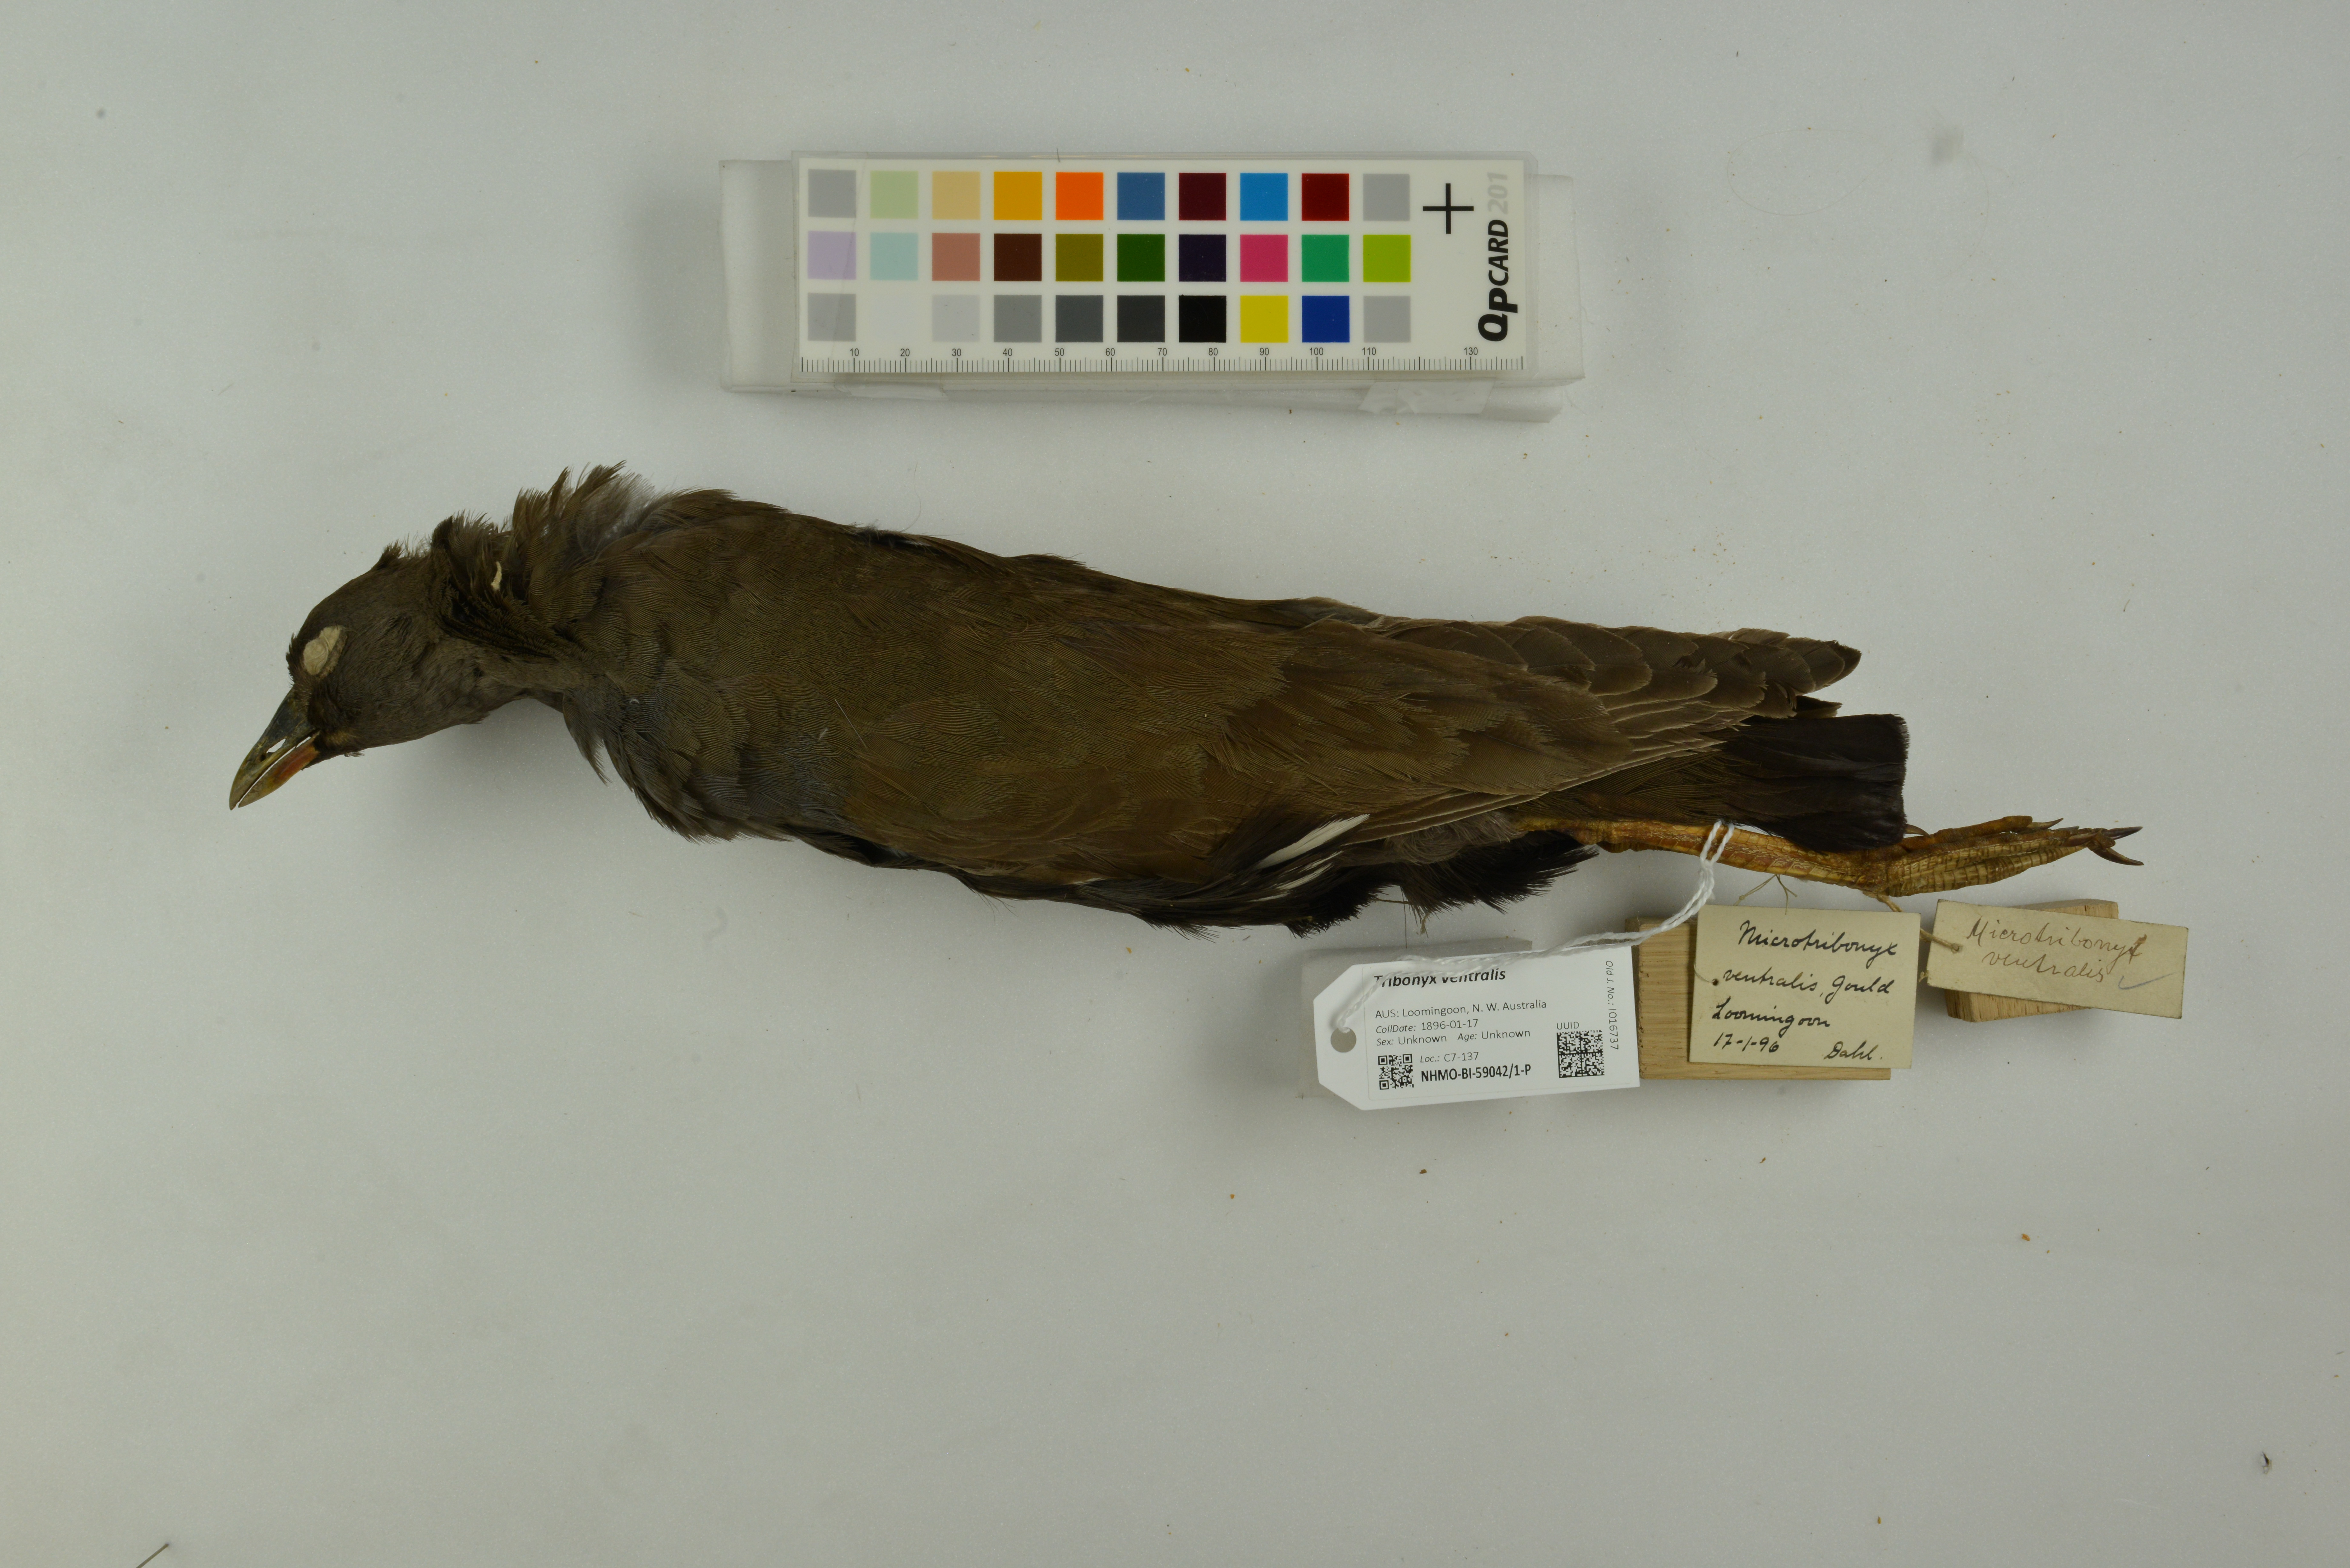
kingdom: Animalia
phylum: Chordata
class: Aves
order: Gruiformes
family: Rallidae
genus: Gallinula
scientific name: Gallinula ventralis
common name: Black-tailed nativehen
